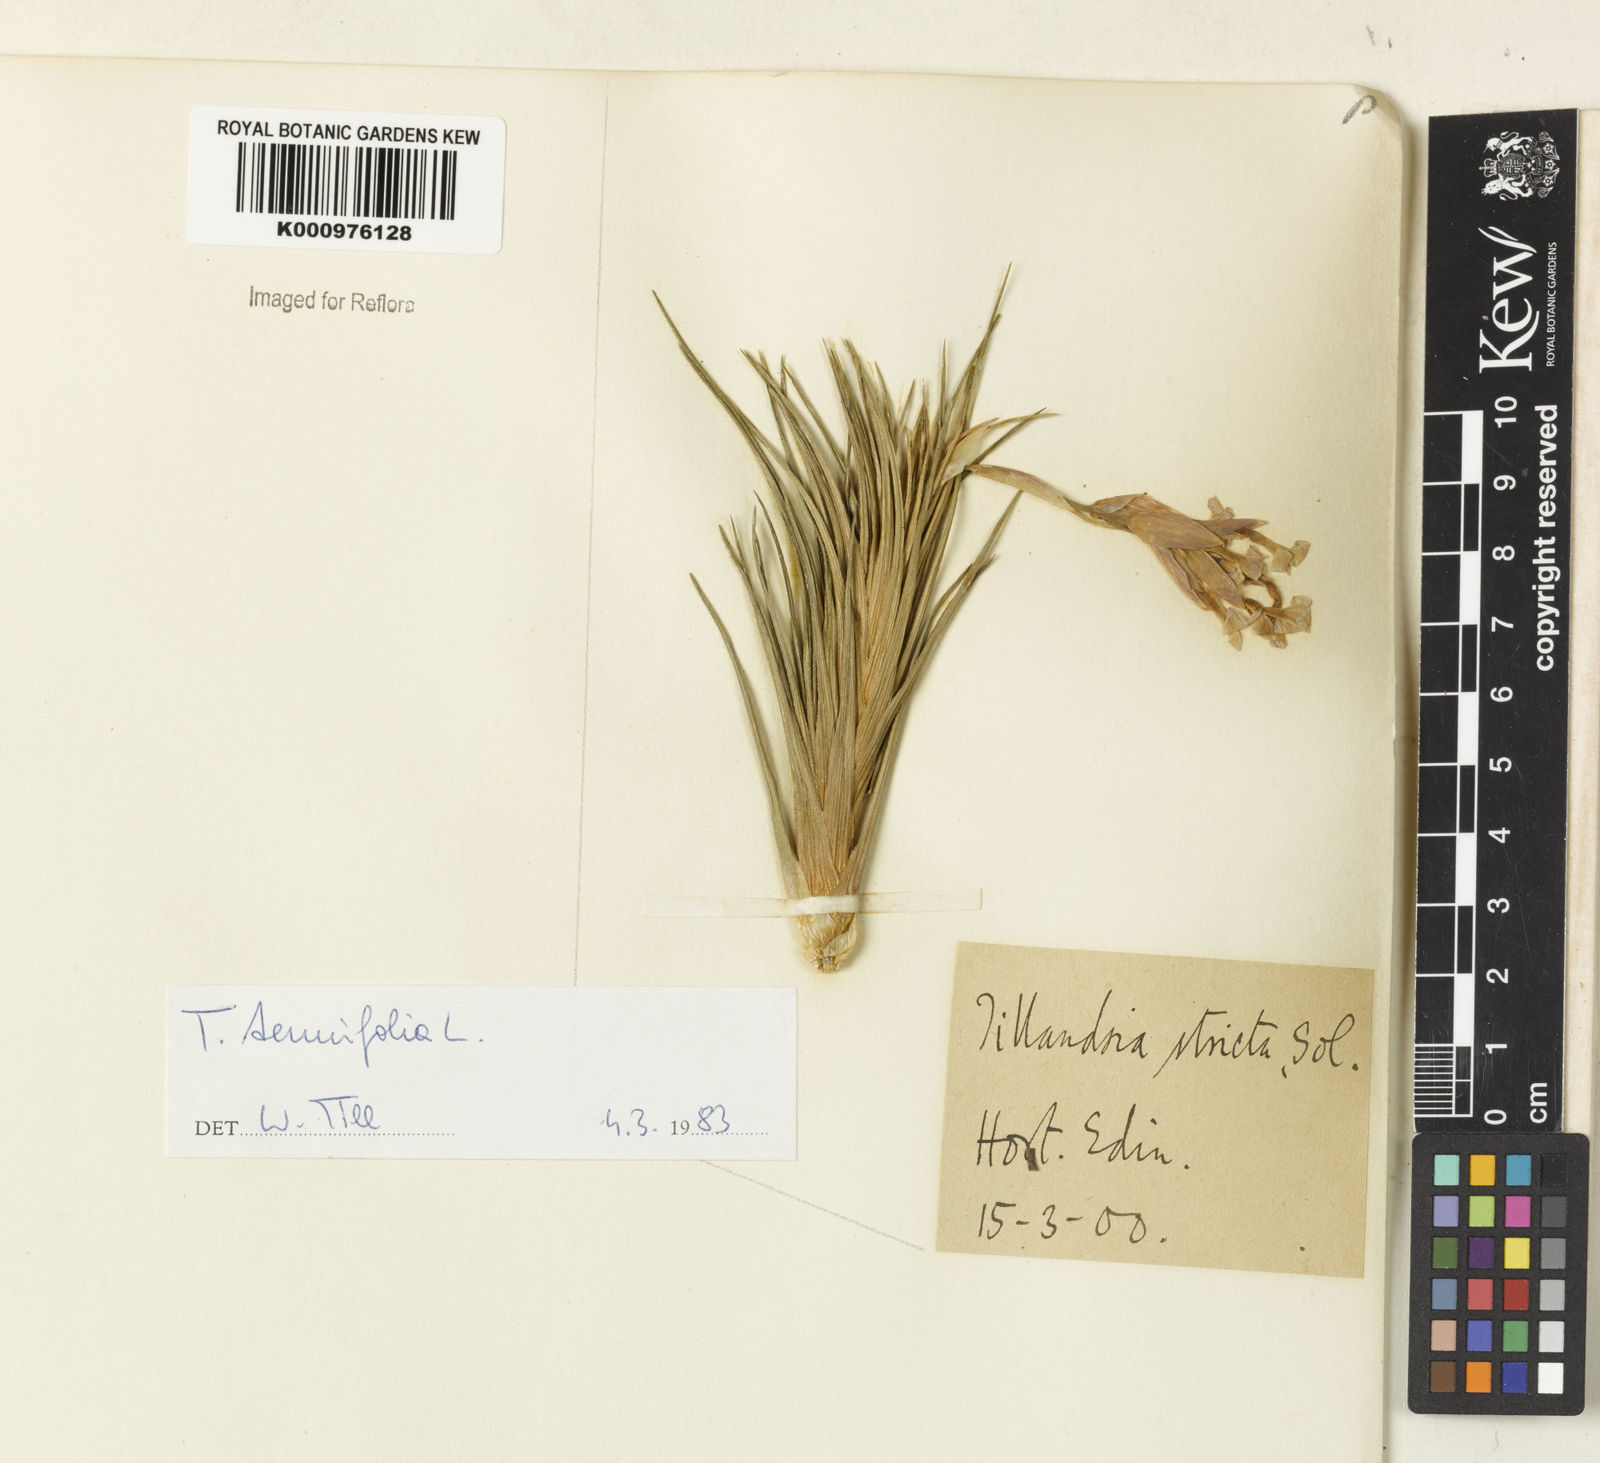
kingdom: Plantae
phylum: Tracheophyta
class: Liliopsida
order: Poales
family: Bromeliaceae
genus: Tillandsia
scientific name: Tillandsia tenuifolia
